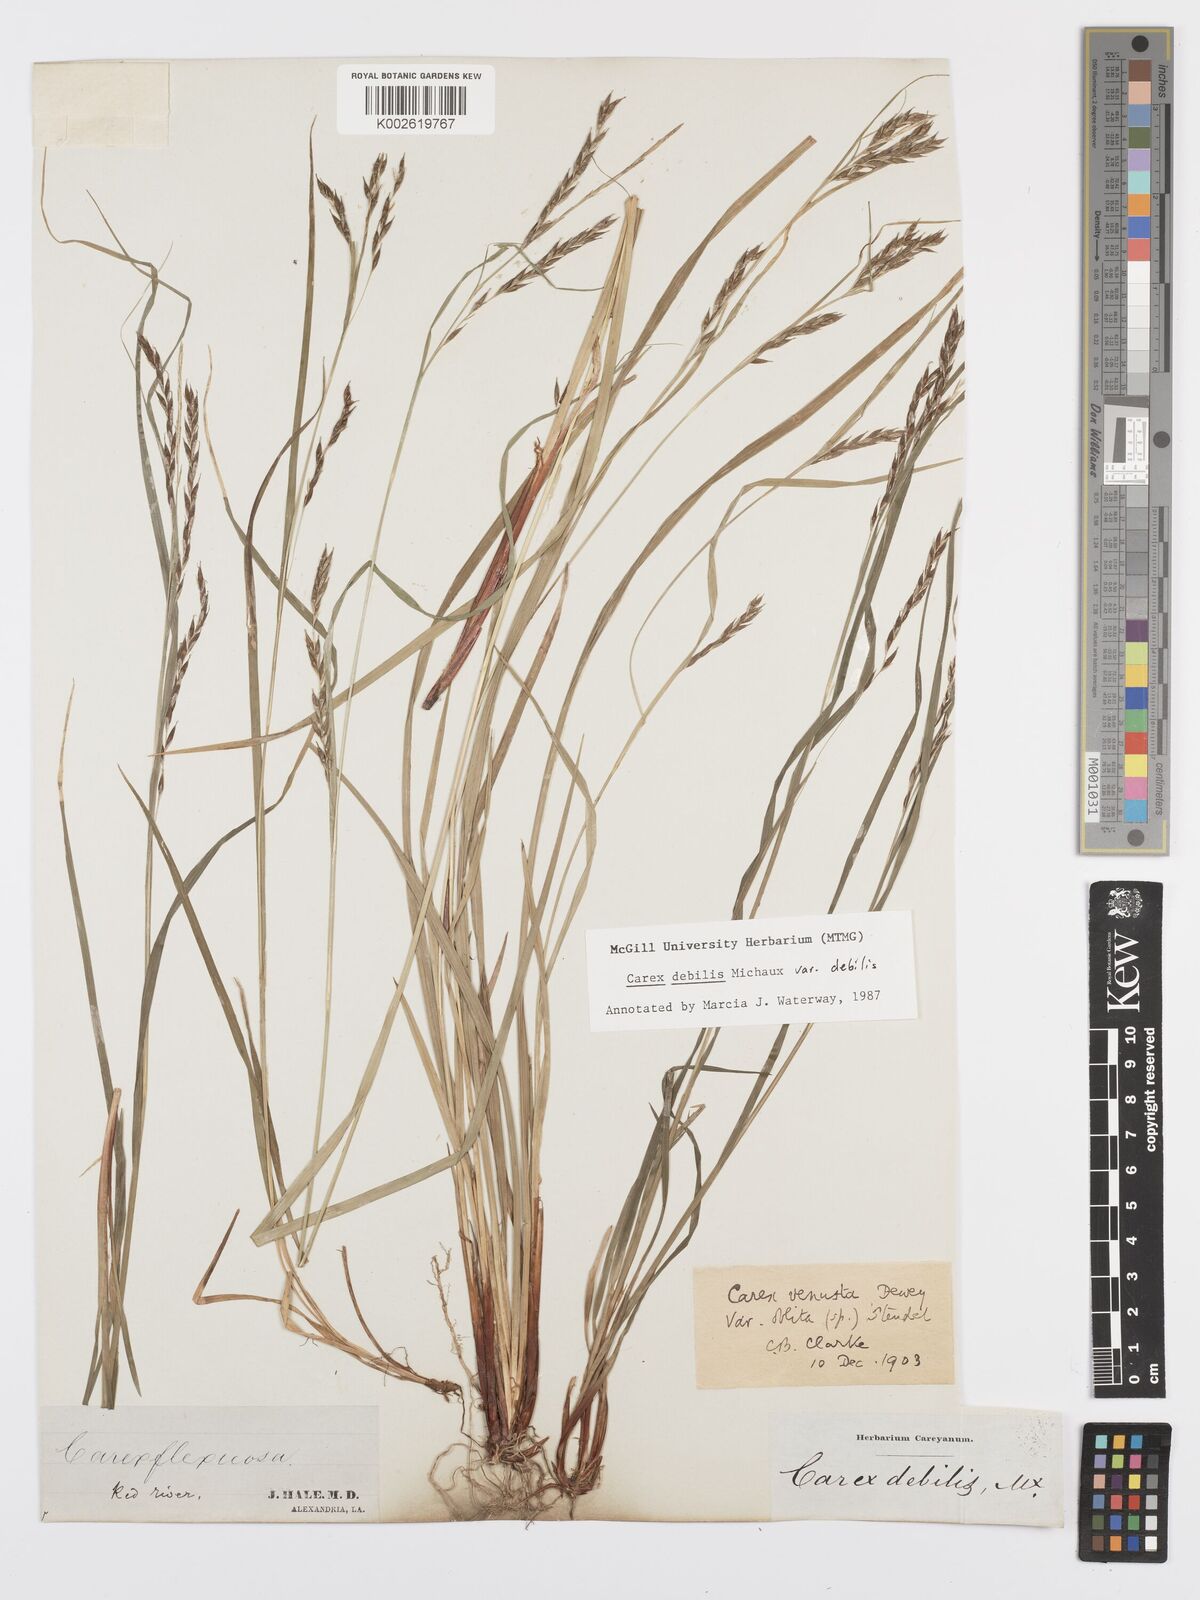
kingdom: Plantae
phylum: Tracheophyta
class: Liliopsida
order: Poales
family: Cyperaceae
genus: Carex
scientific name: Carex debilis
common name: White-edge sedge
